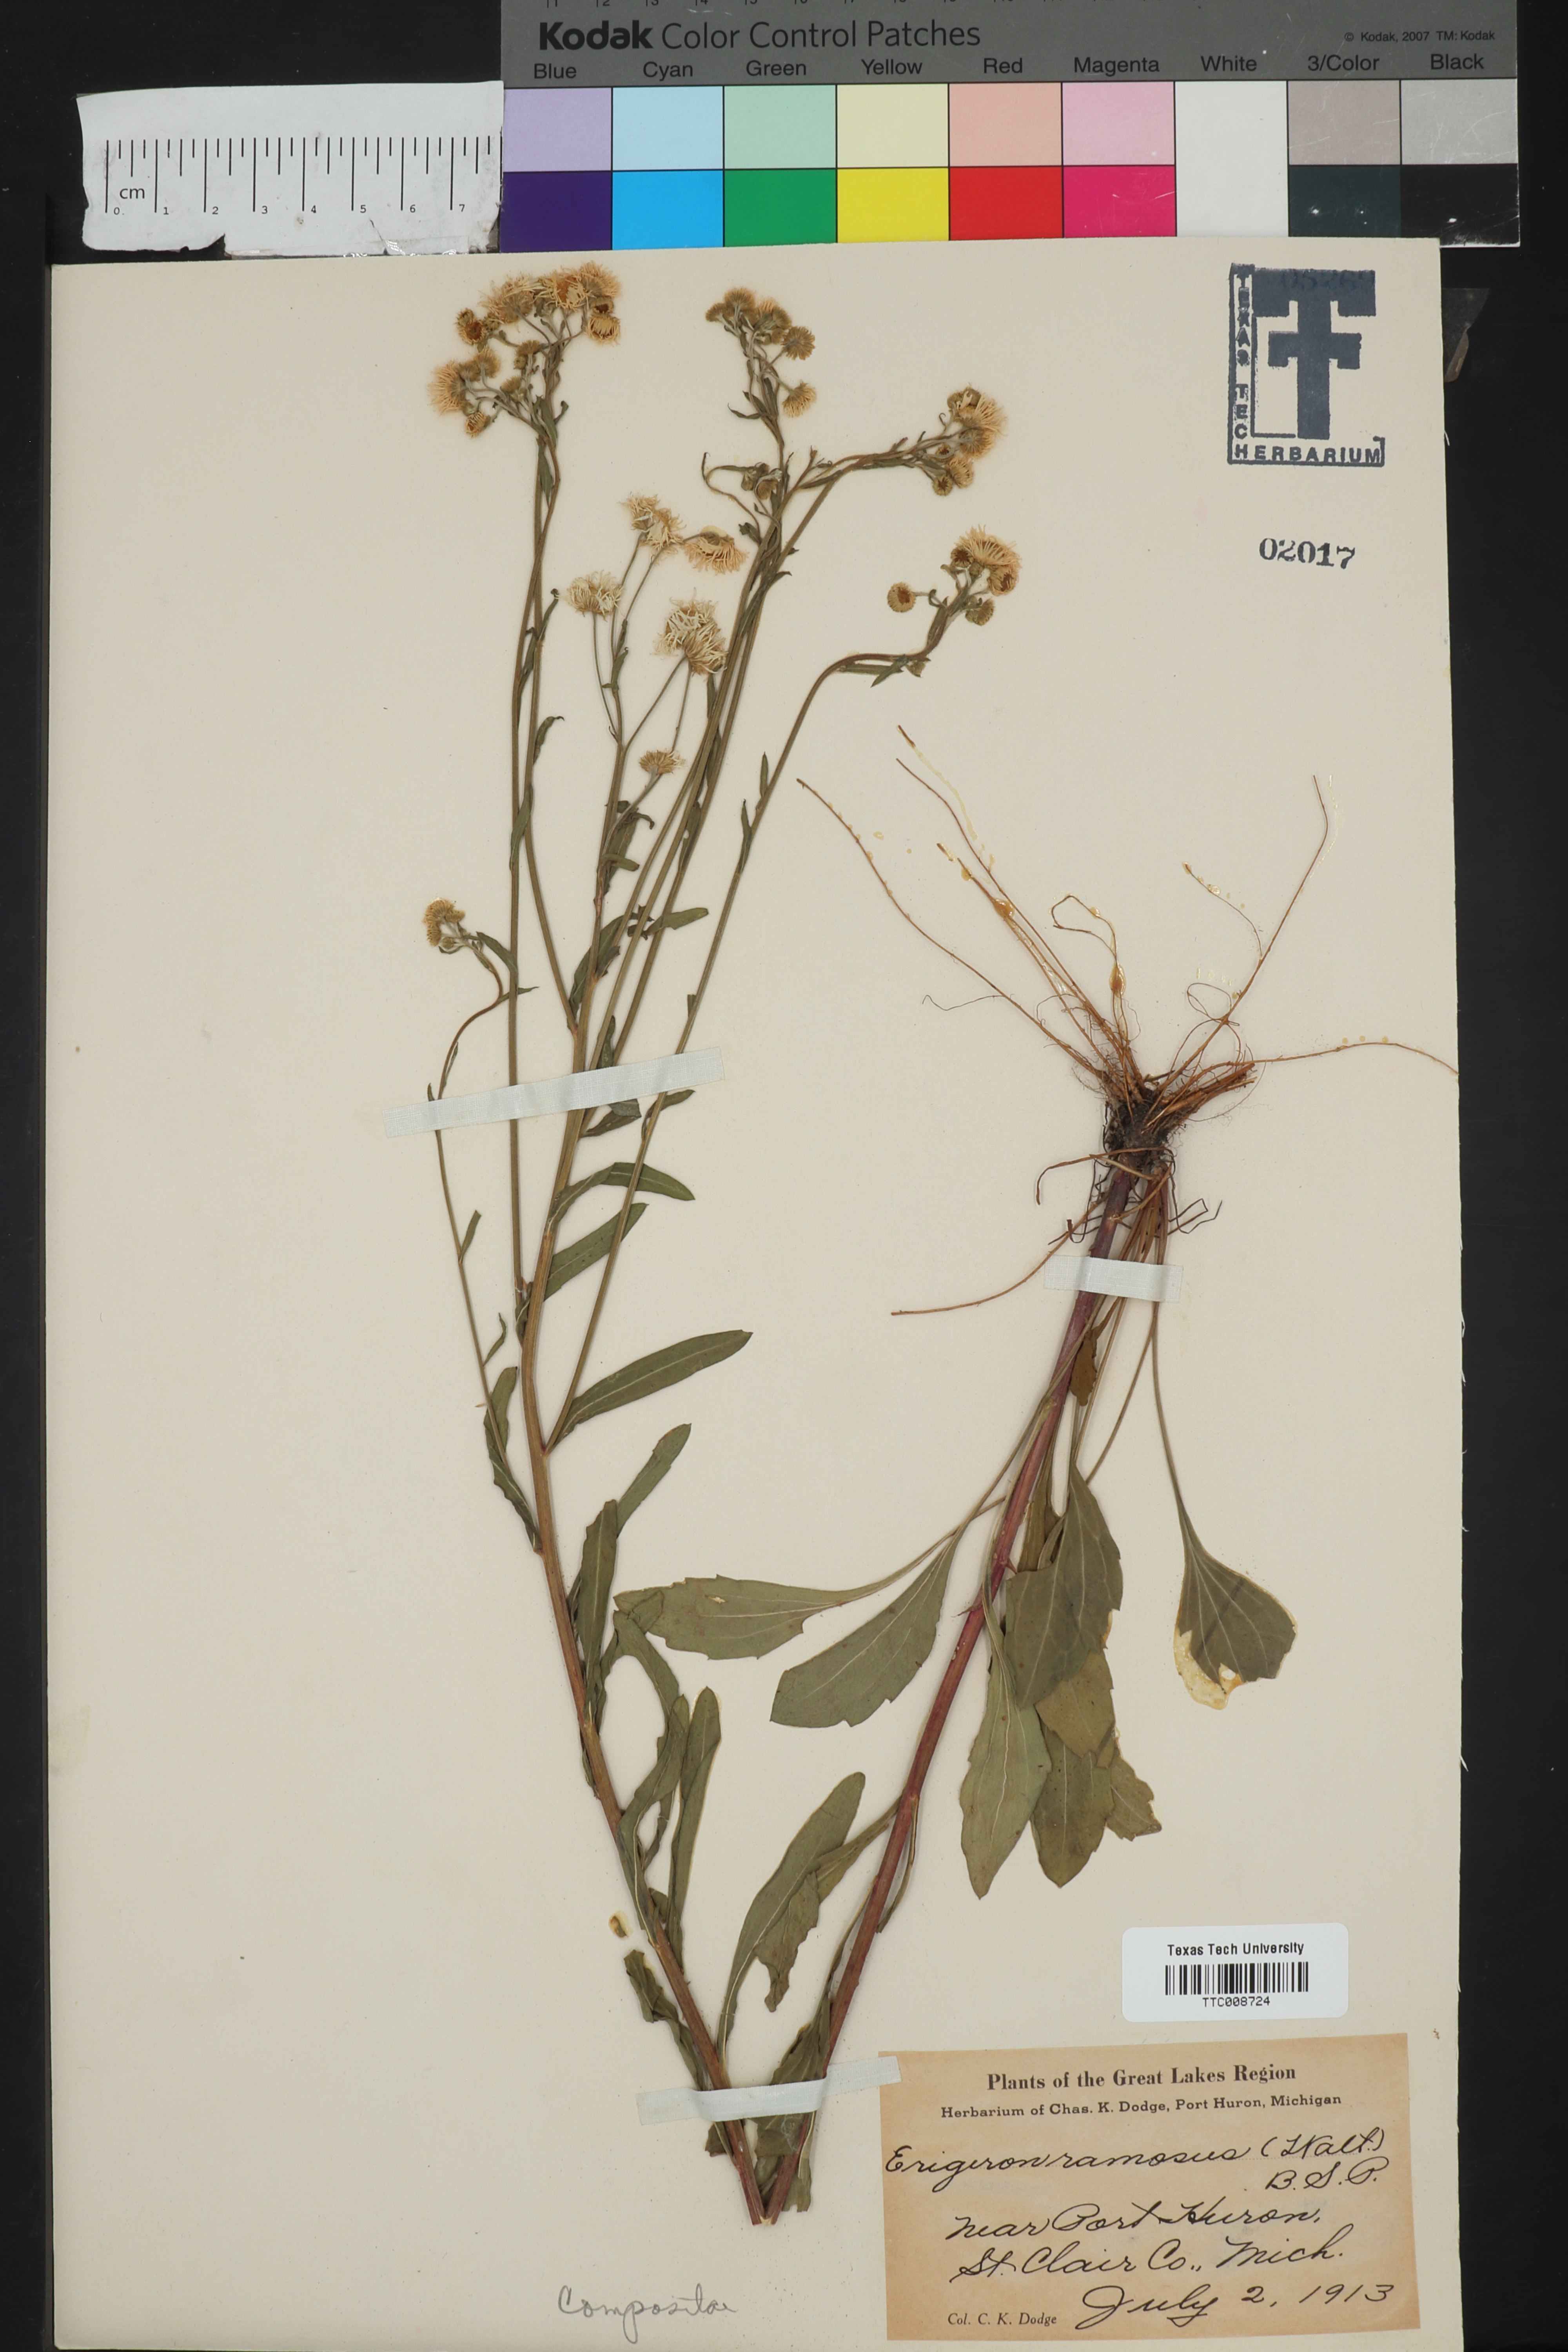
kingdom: Plantae
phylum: Tracheophyta
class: Magnoliopsida
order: Asterales
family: Asteraceae
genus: Erigeron
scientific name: Erigeron strigosus
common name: Common eastern fleabane
